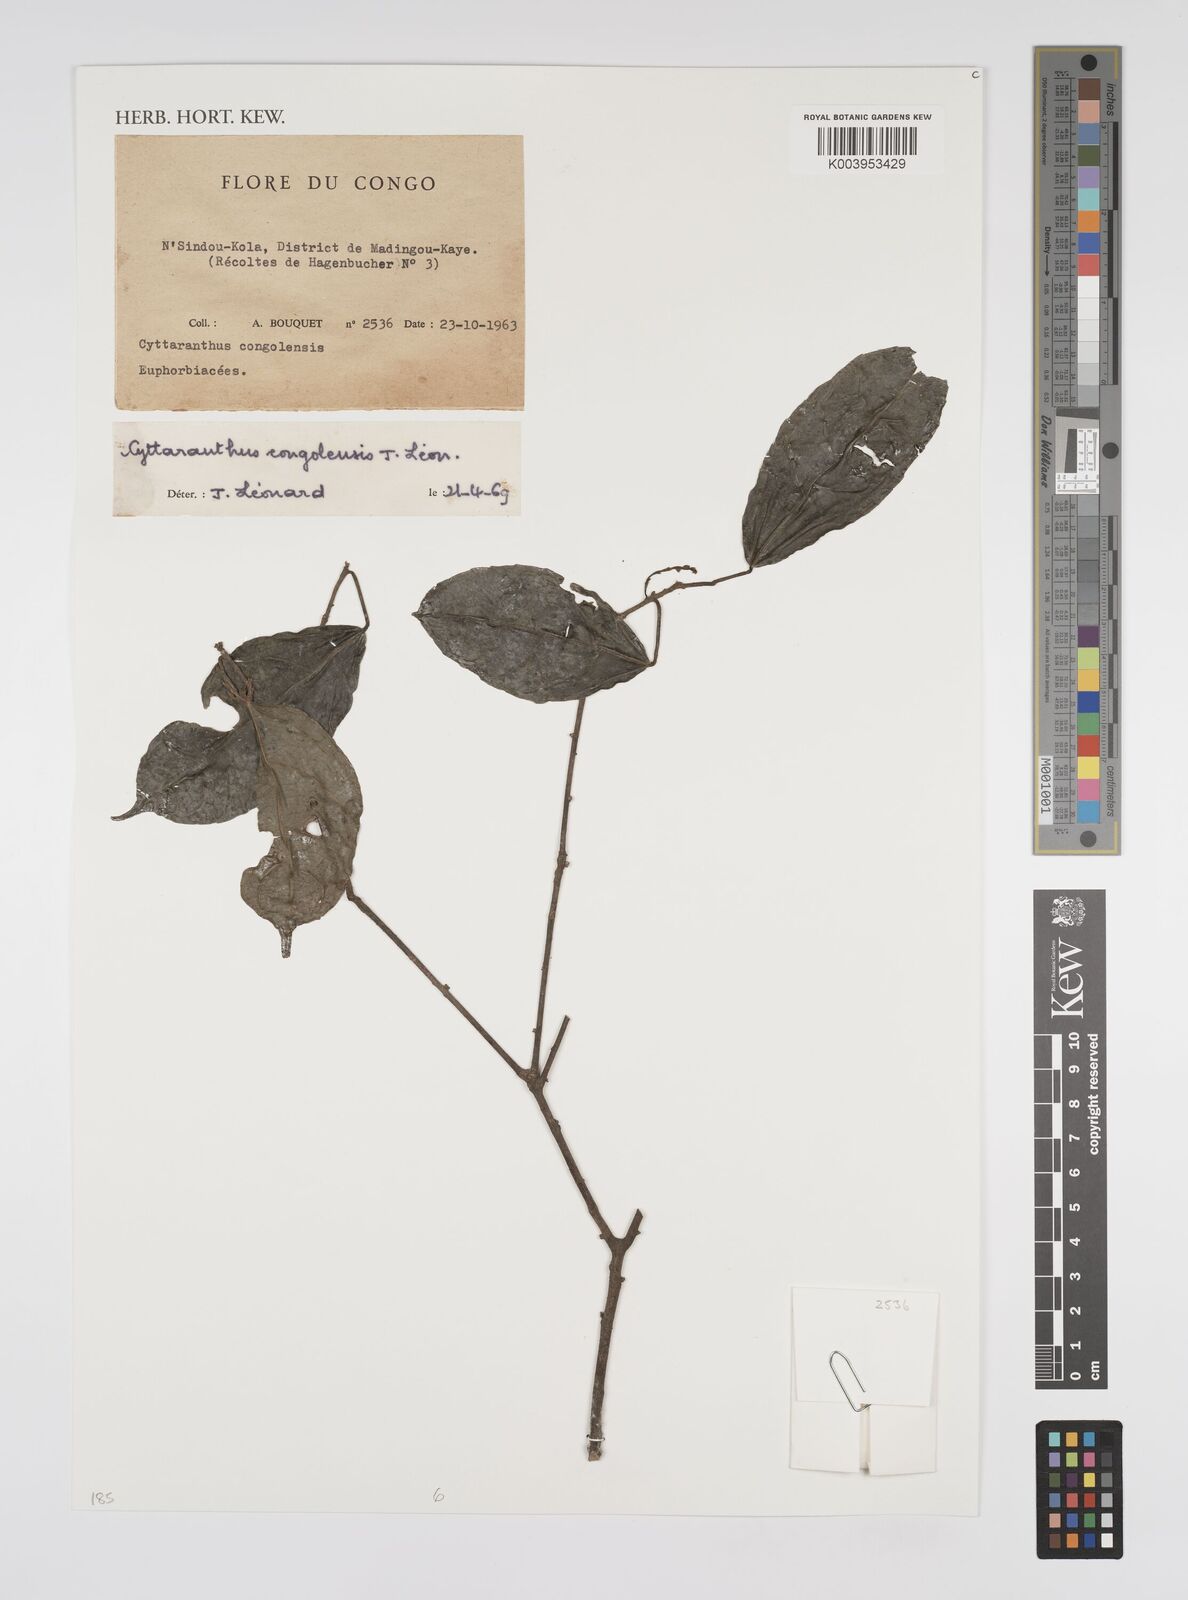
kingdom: Plantae
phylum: Tracheophyta
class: Magnoliopsida
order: Malpighiales
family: Euphorbiaceae
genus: Cyttaranthus
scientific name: Cyttaranthus congolensis
